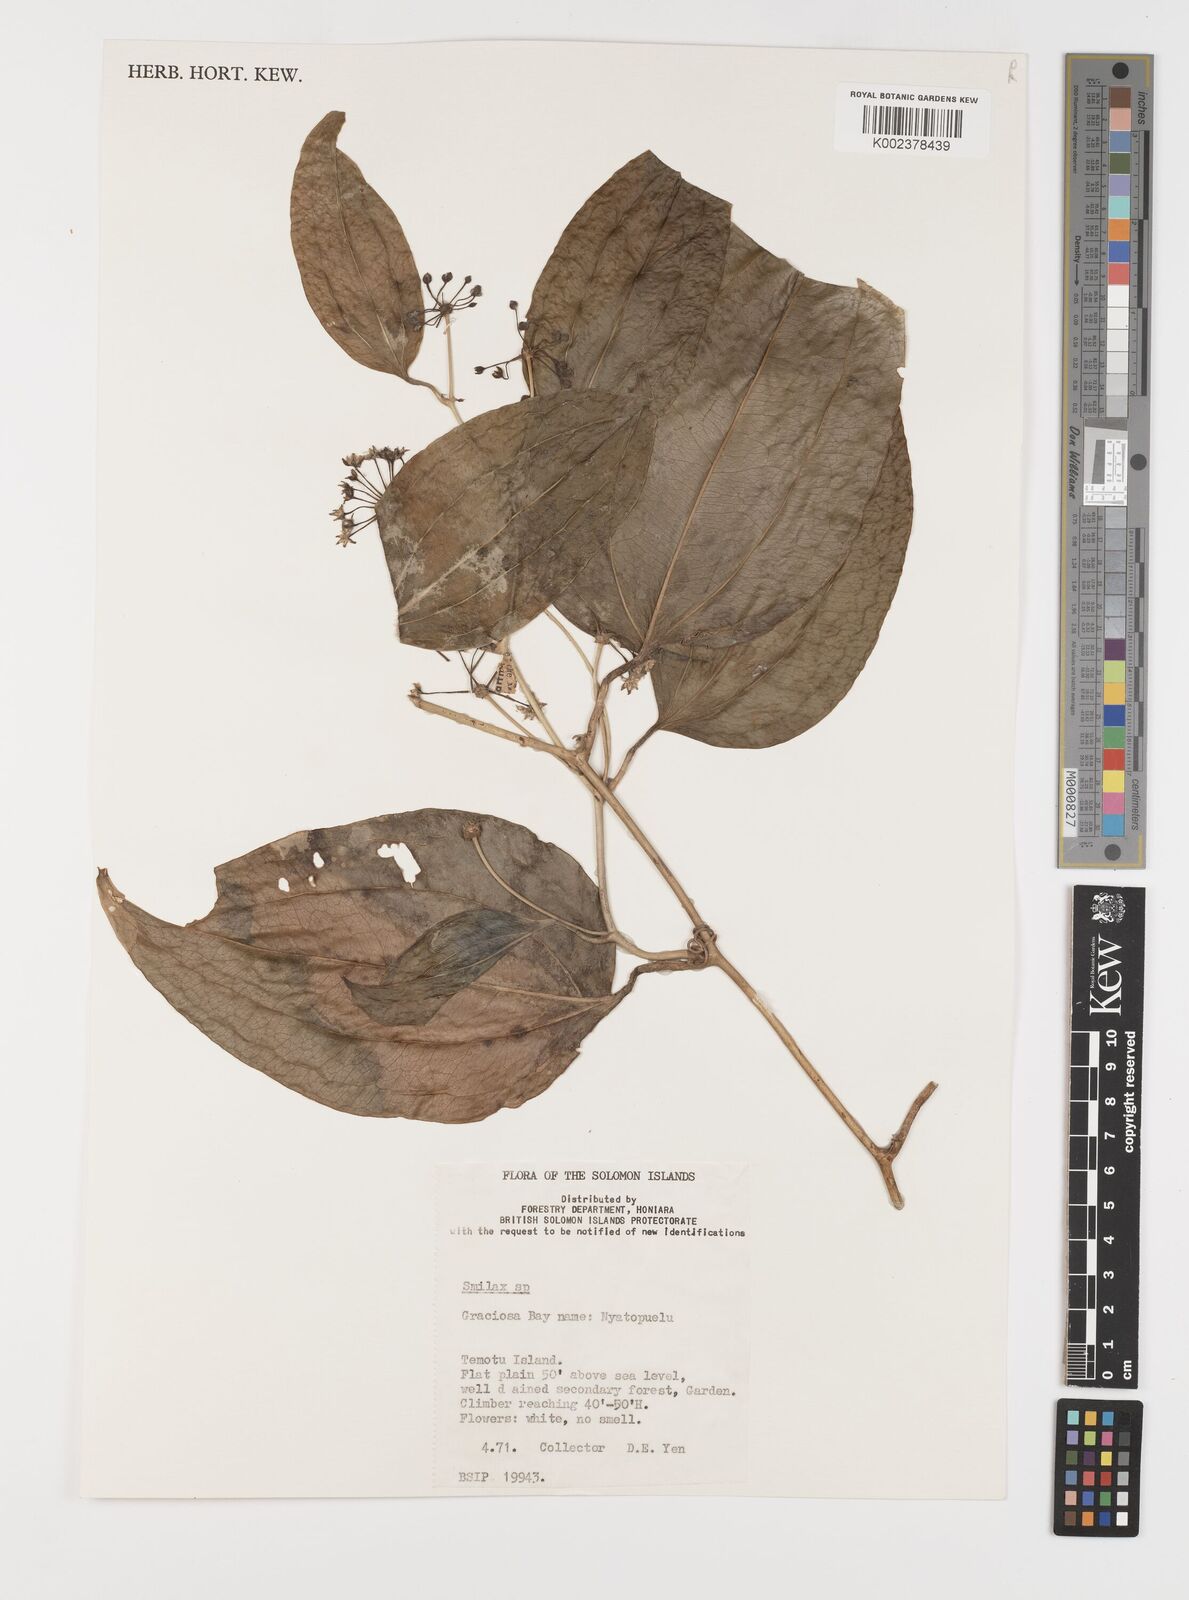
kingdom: Plantae
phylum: Tracheophyta
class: Liliopsida
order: Liliales
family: Smilacaceae
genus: Smilax
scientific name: Smilax
